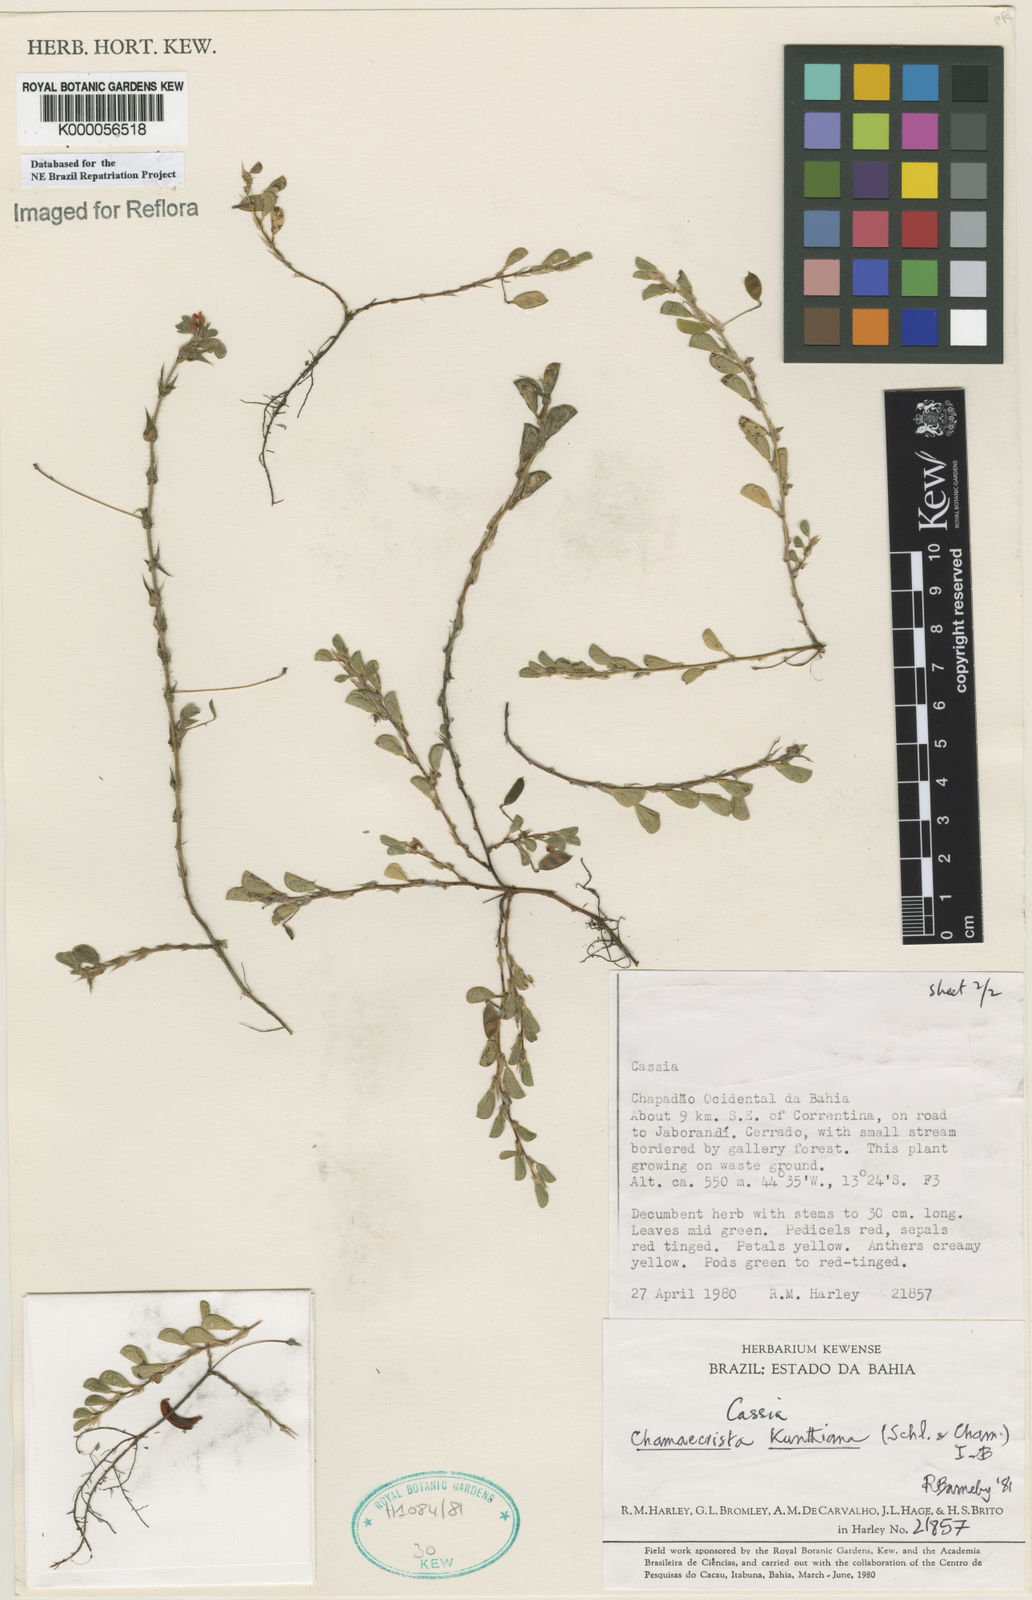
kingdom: Plantae
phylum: Tracheophyta
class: Magnoliopsida
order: Fabales
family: Fabaceae
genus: Chamaecrista
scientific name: Chamaecrista kunthiana
